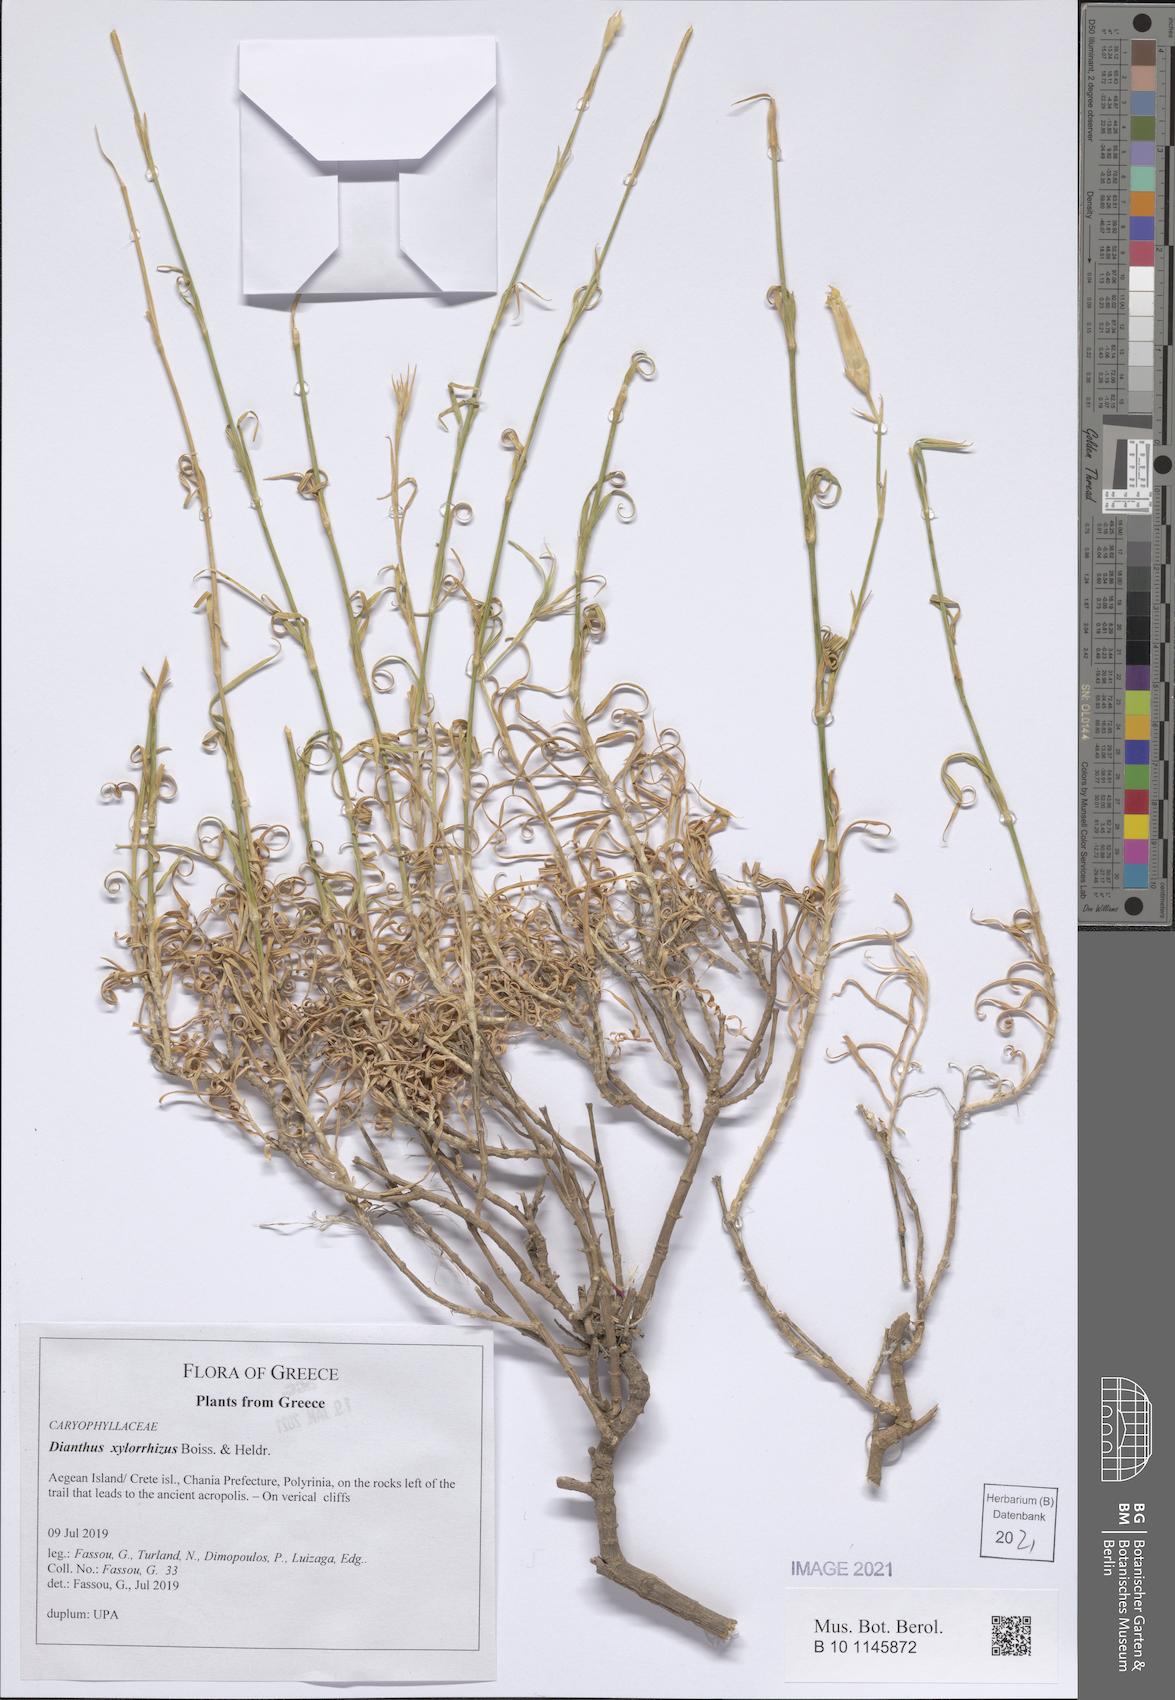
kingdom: Plantae
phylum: Tracheophyta
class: Magnoliopsida
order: Caryophyllales
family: Caryophyllaceae
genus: Dianthus
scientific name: Dianthus xylorrhizus
